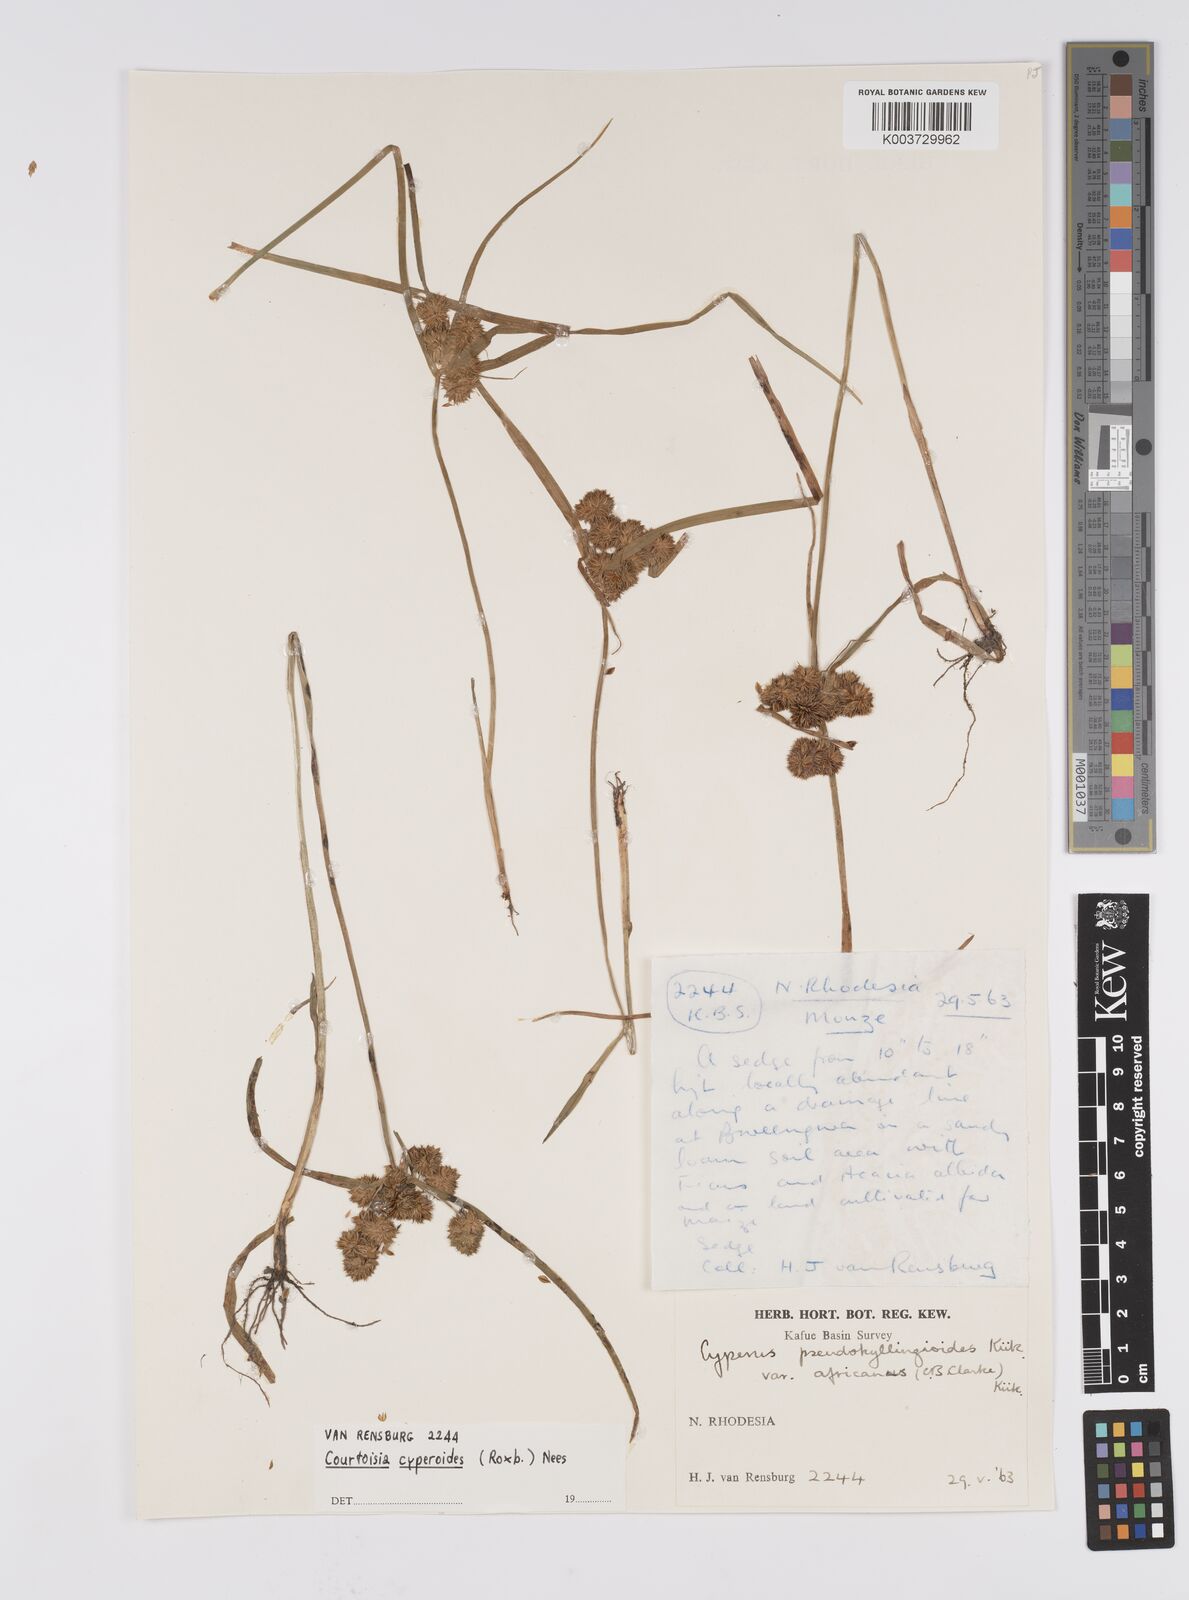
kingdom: Plantae
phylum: Tracheophyta
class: Liliopsida
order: Poales
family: Cyperaceae
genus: Cyperus
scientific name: Cyperus cyperoides
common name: Pacific island flat sedge
